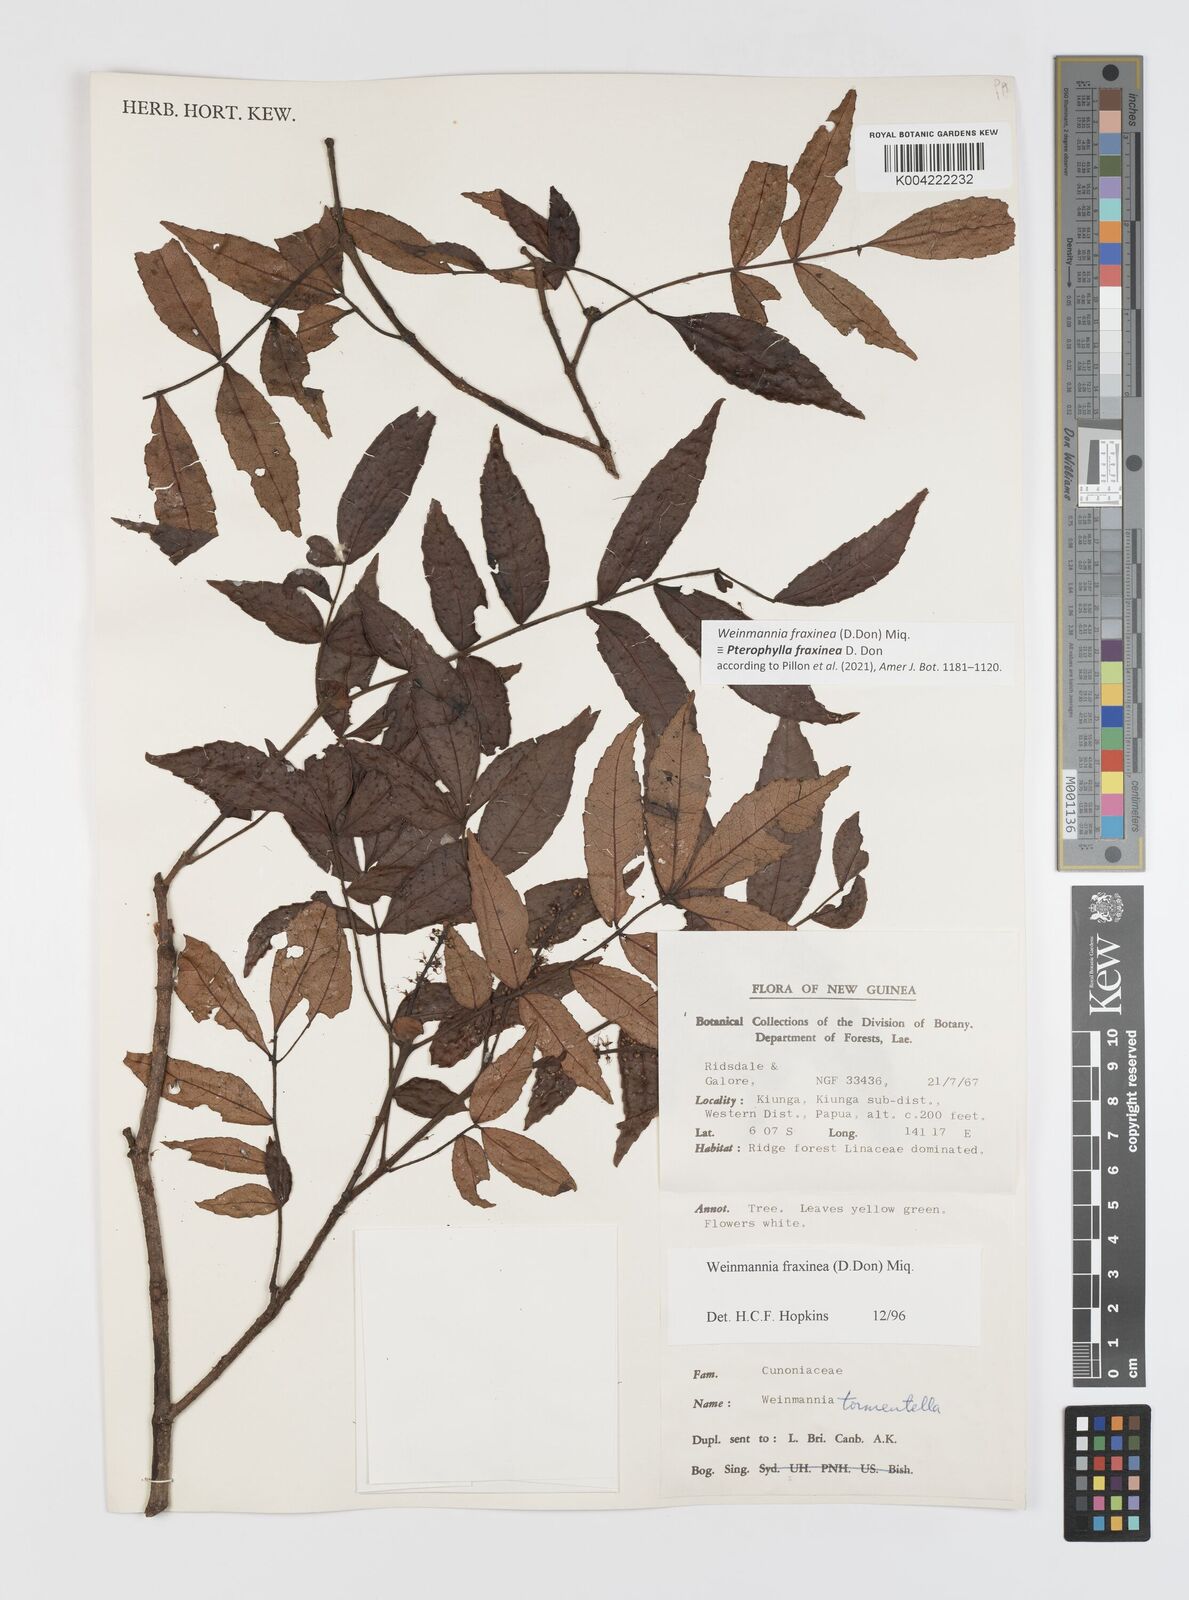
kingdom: Plantae
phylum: Tracheophyta
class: Magnoliopsida
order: Oxalidales
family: Cunoniaceae
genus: Pterophylla
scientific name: Pterophylla fraxinea
